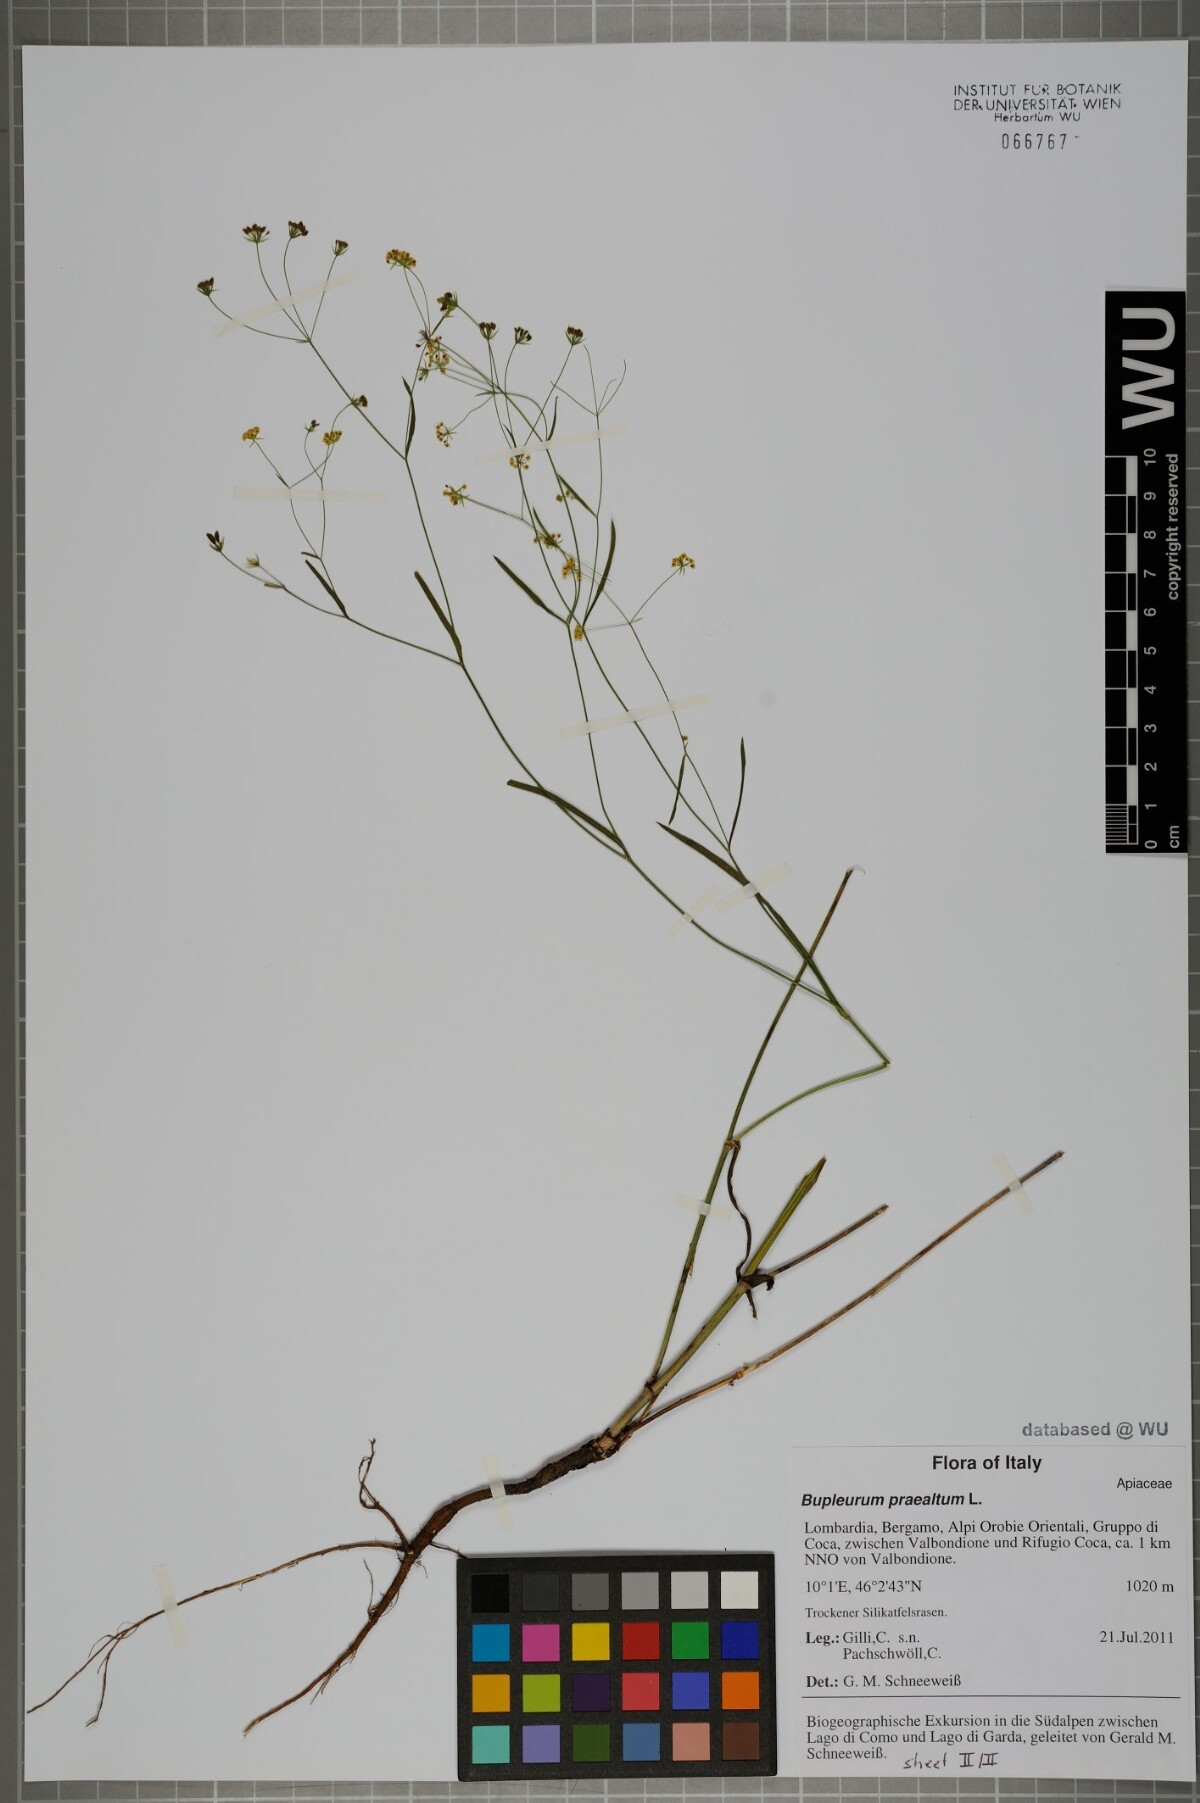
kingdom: Plantae
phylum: Tracheophyta
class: Magnoliopsida
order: Apiales
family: Apiaceae
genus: Bupleurum
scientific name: Bupleurum praealtum
